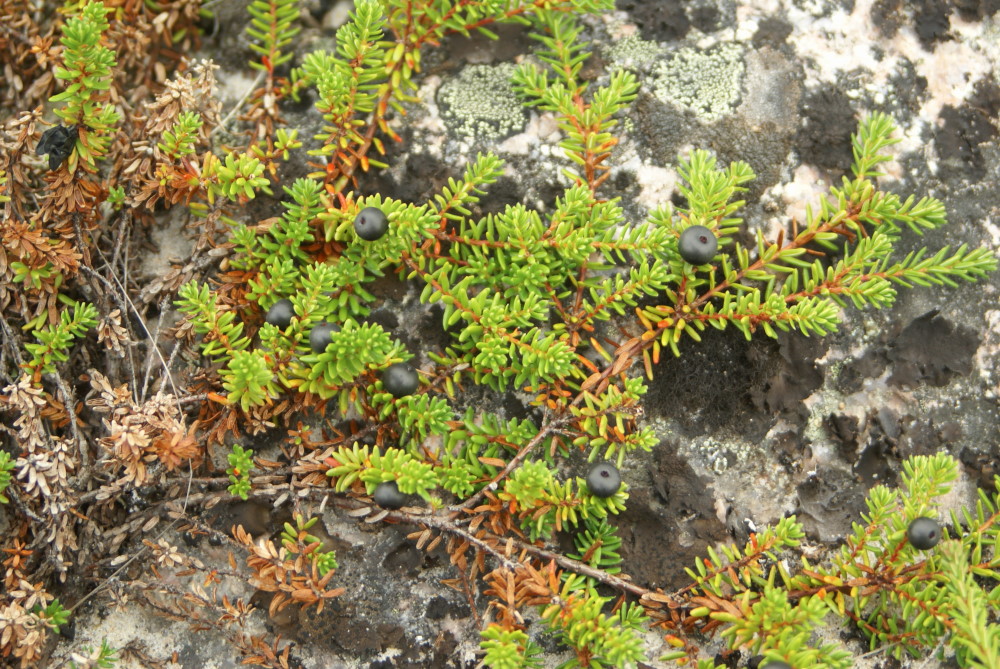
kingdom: Plantae
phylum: Tracheophyta
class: Magnoliopsida
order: Ericales
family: Ericaceae
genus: Empetrum
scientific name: Empetrum hermaphroditum
